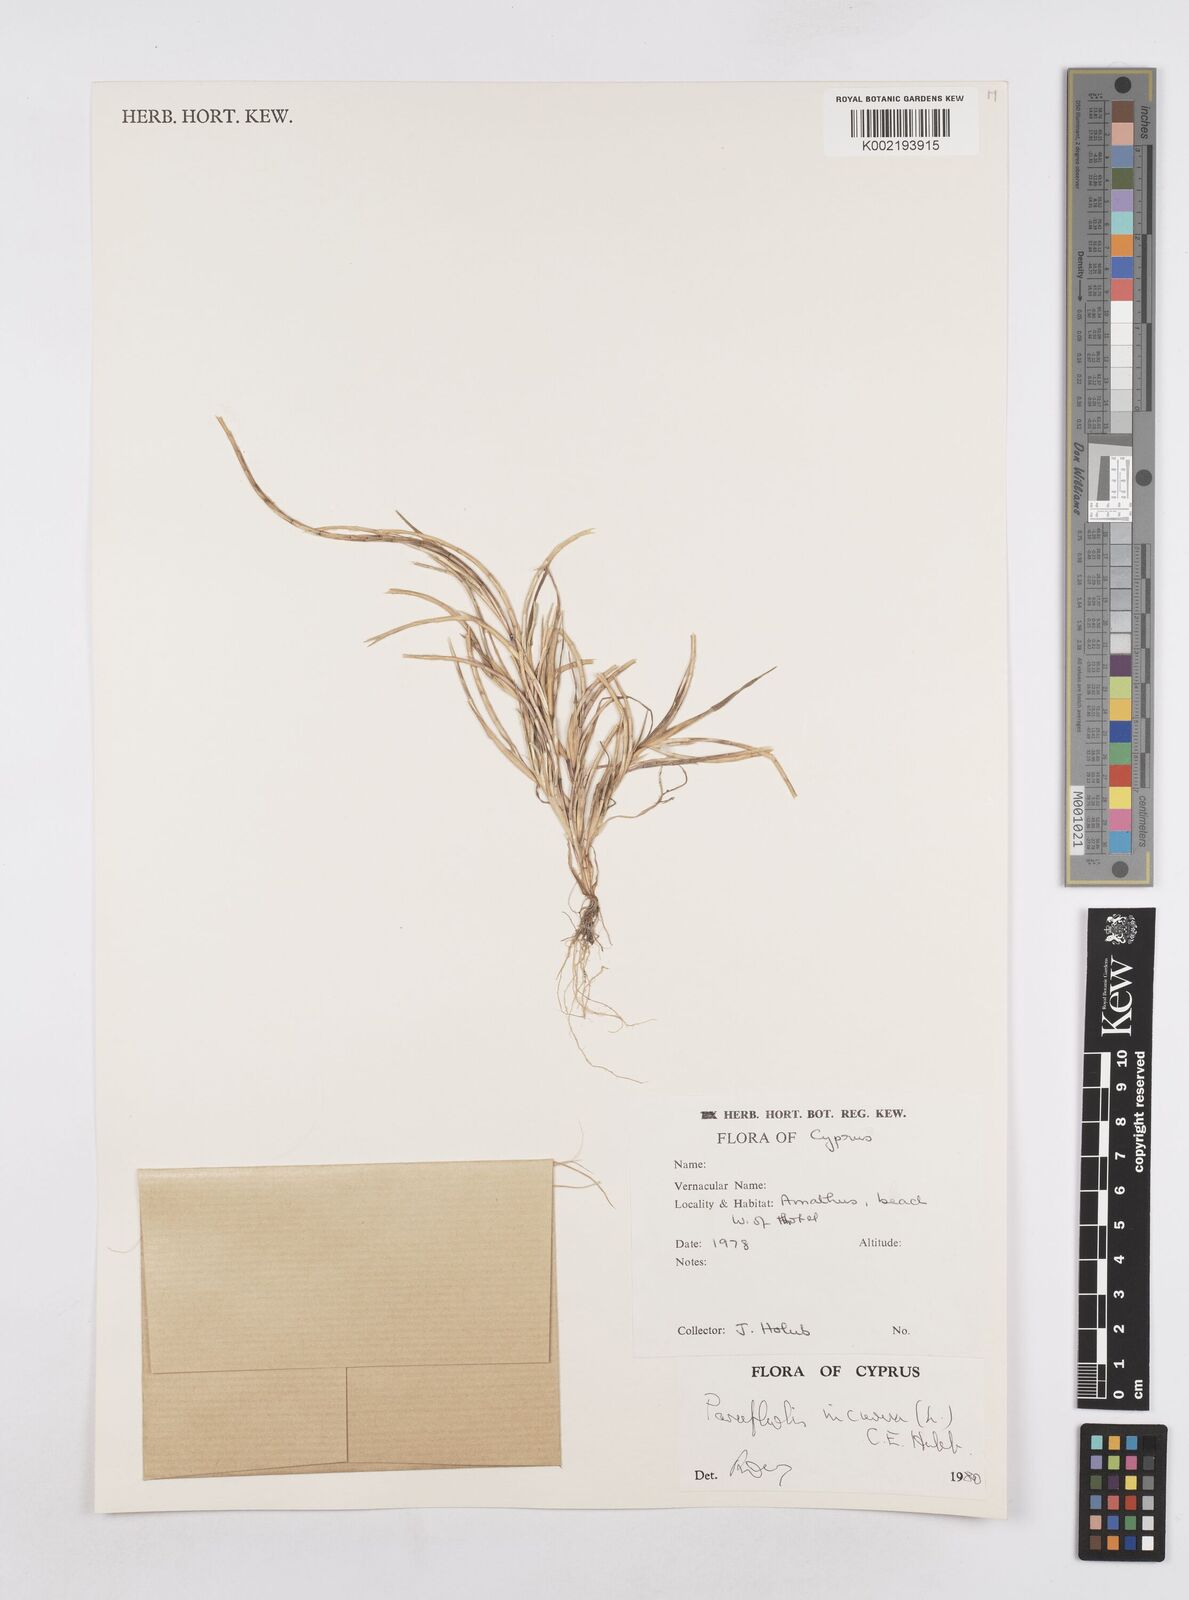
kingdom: Plantae
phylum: Tracheophyta
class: Liliopsida
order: Poales
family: Poaceae
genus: Parapholis
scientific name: Parapholis incurva
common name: Curved sicklegrass
